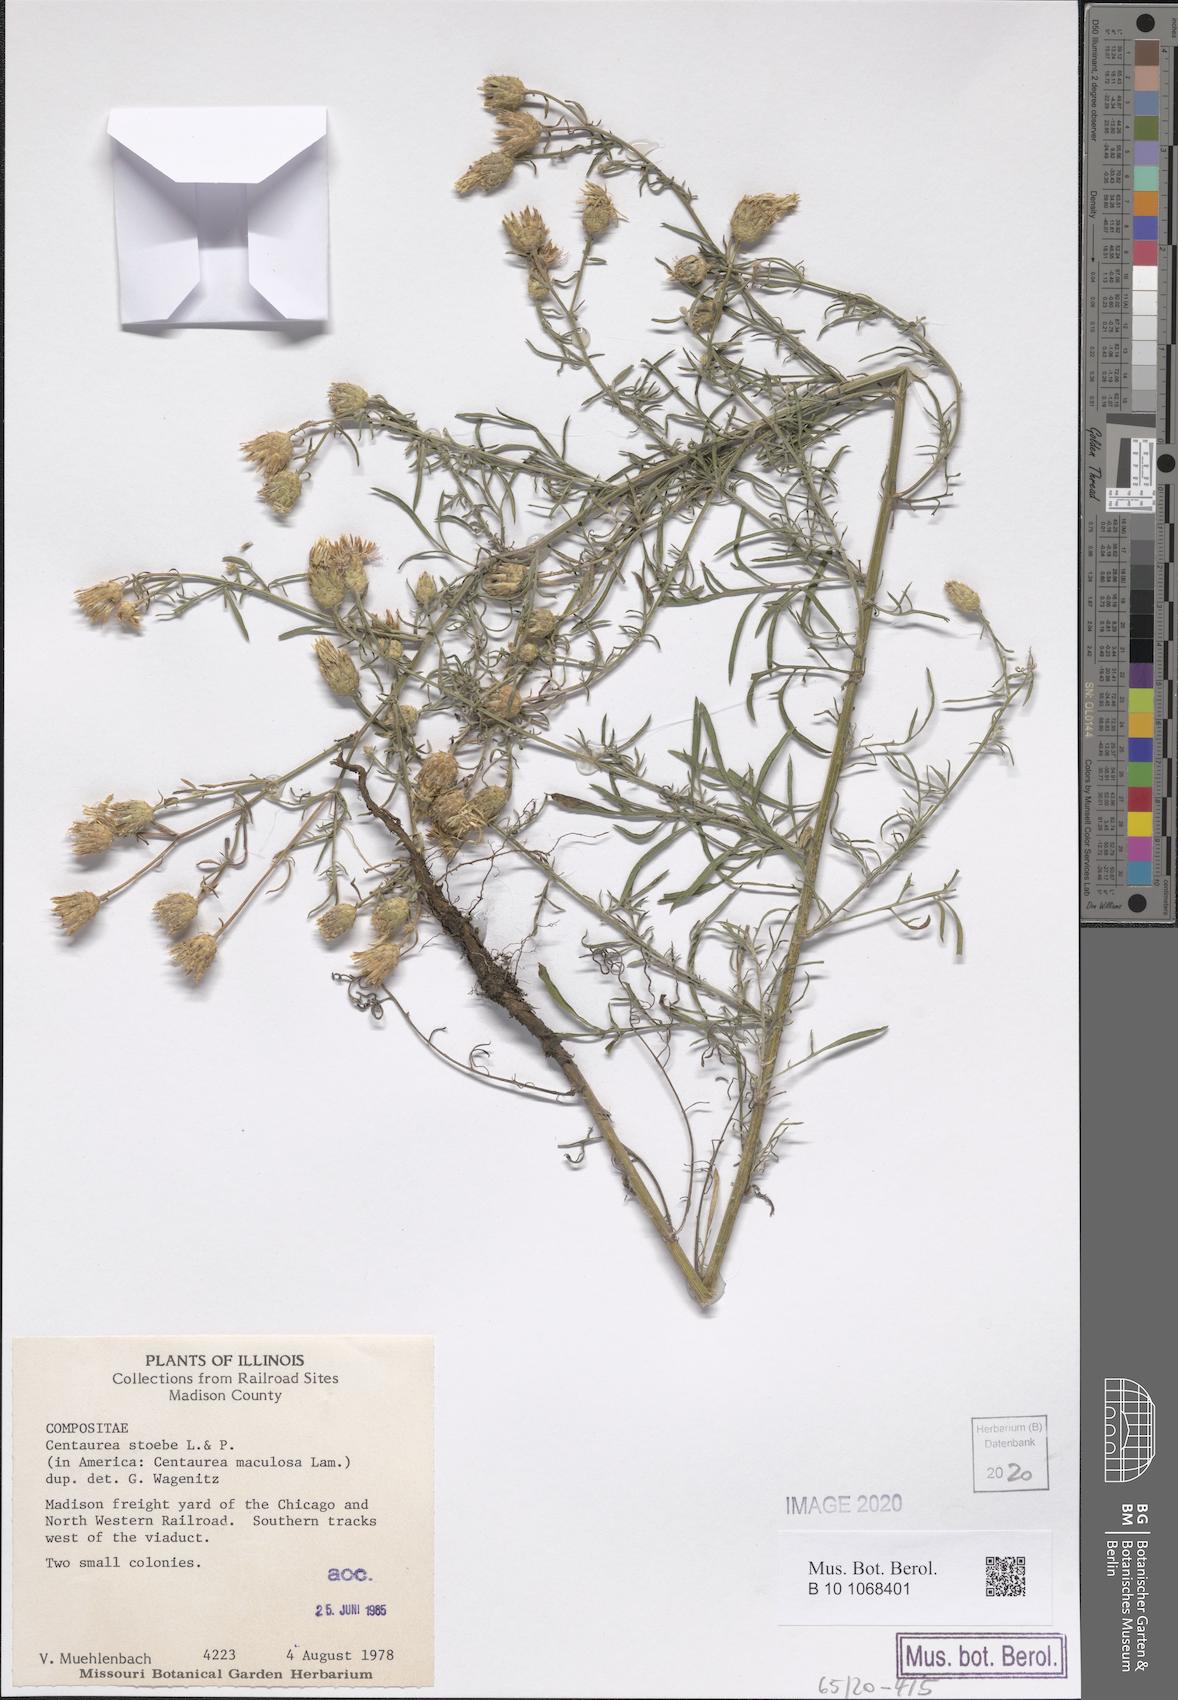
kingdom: Plantae
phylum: Tracheophyta
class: Magnoliopsida
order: Asterales
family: Asteraceae
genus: Centaurea
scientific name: Centaurea stoebe
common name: Spotted knapweed
